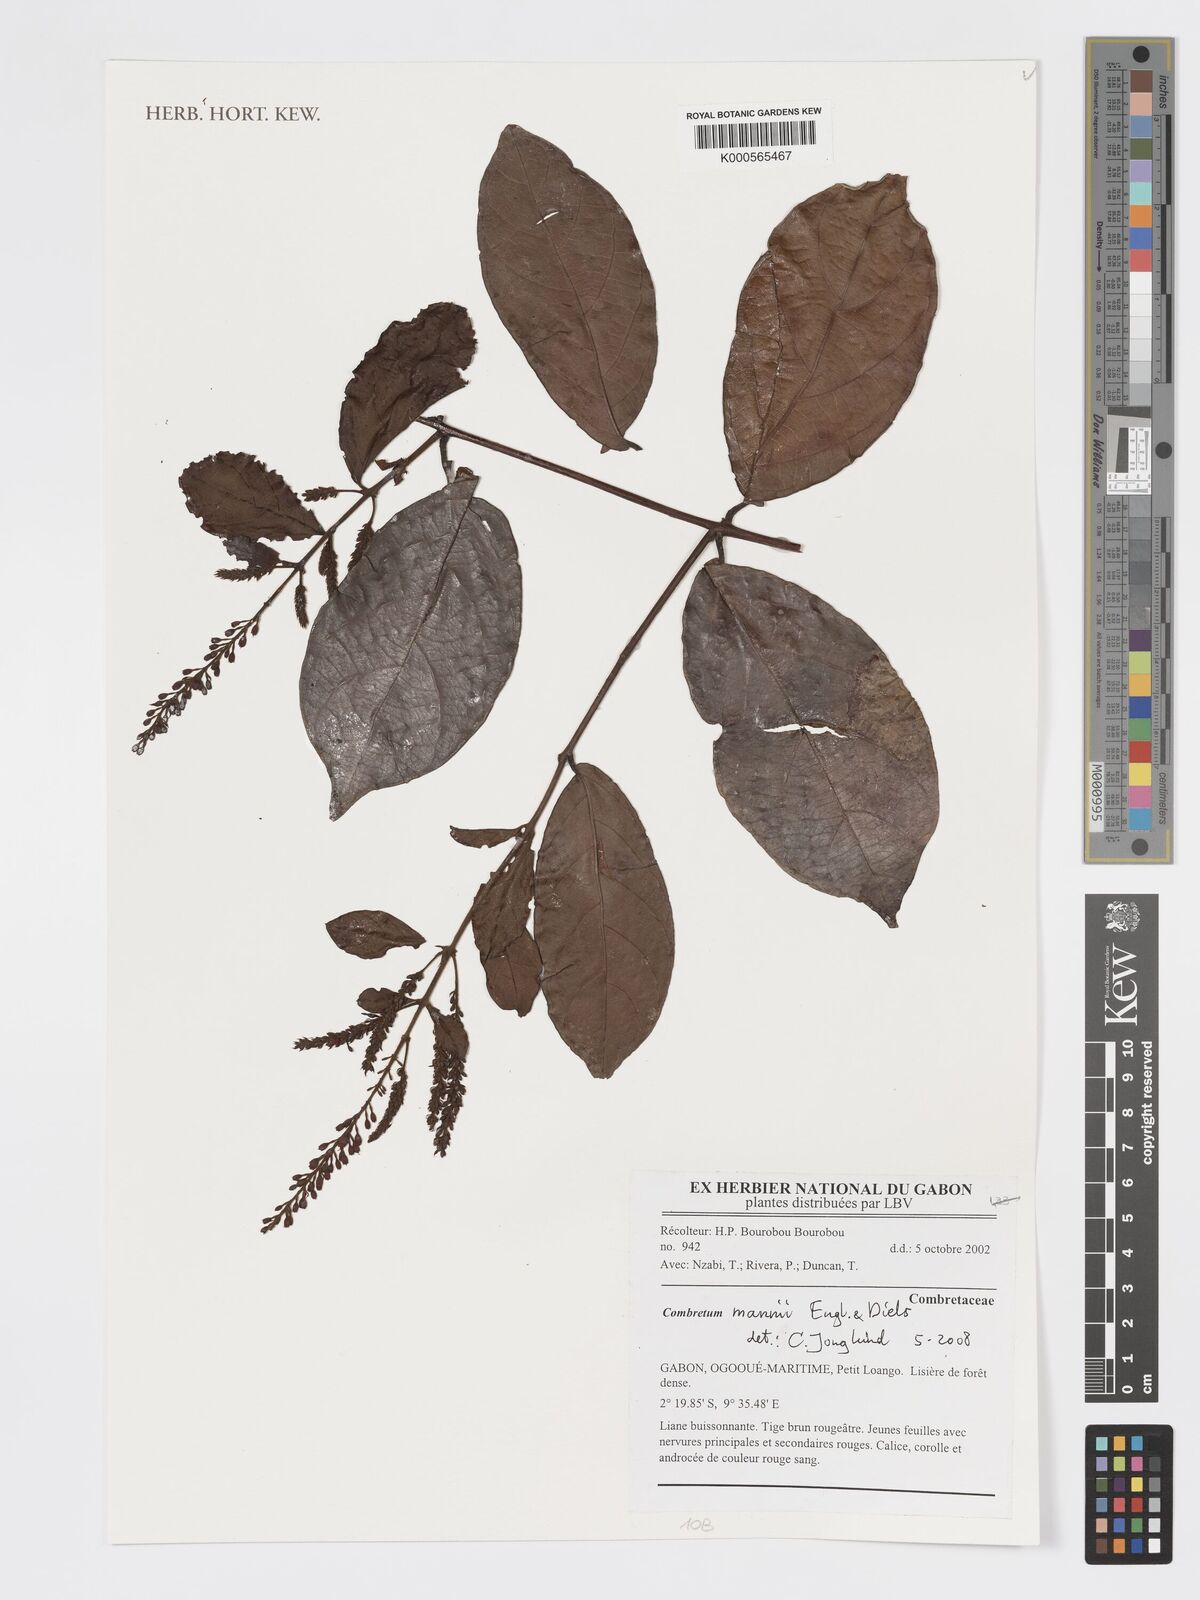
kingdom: Plantae
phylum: Tracheophyta
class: Magnoliopsida
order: Myrtales
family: Combretaceae
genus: Combretum
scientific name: Combretum
